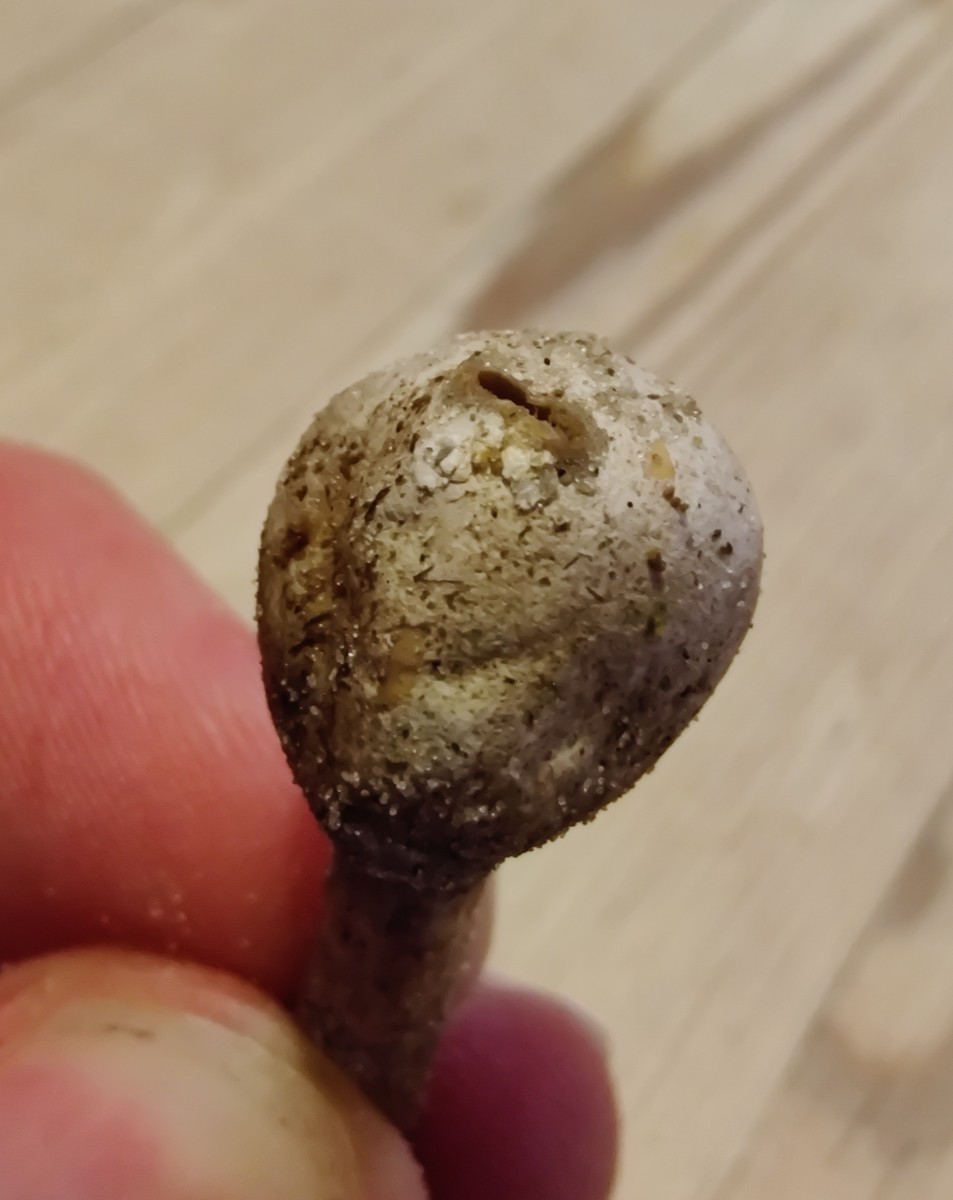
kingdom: Fungi
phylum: Basidiomycota
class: Agaricomycetes
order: Agaricales
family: Agaricaceae
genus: Tulostoma
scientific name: Tulostoma
